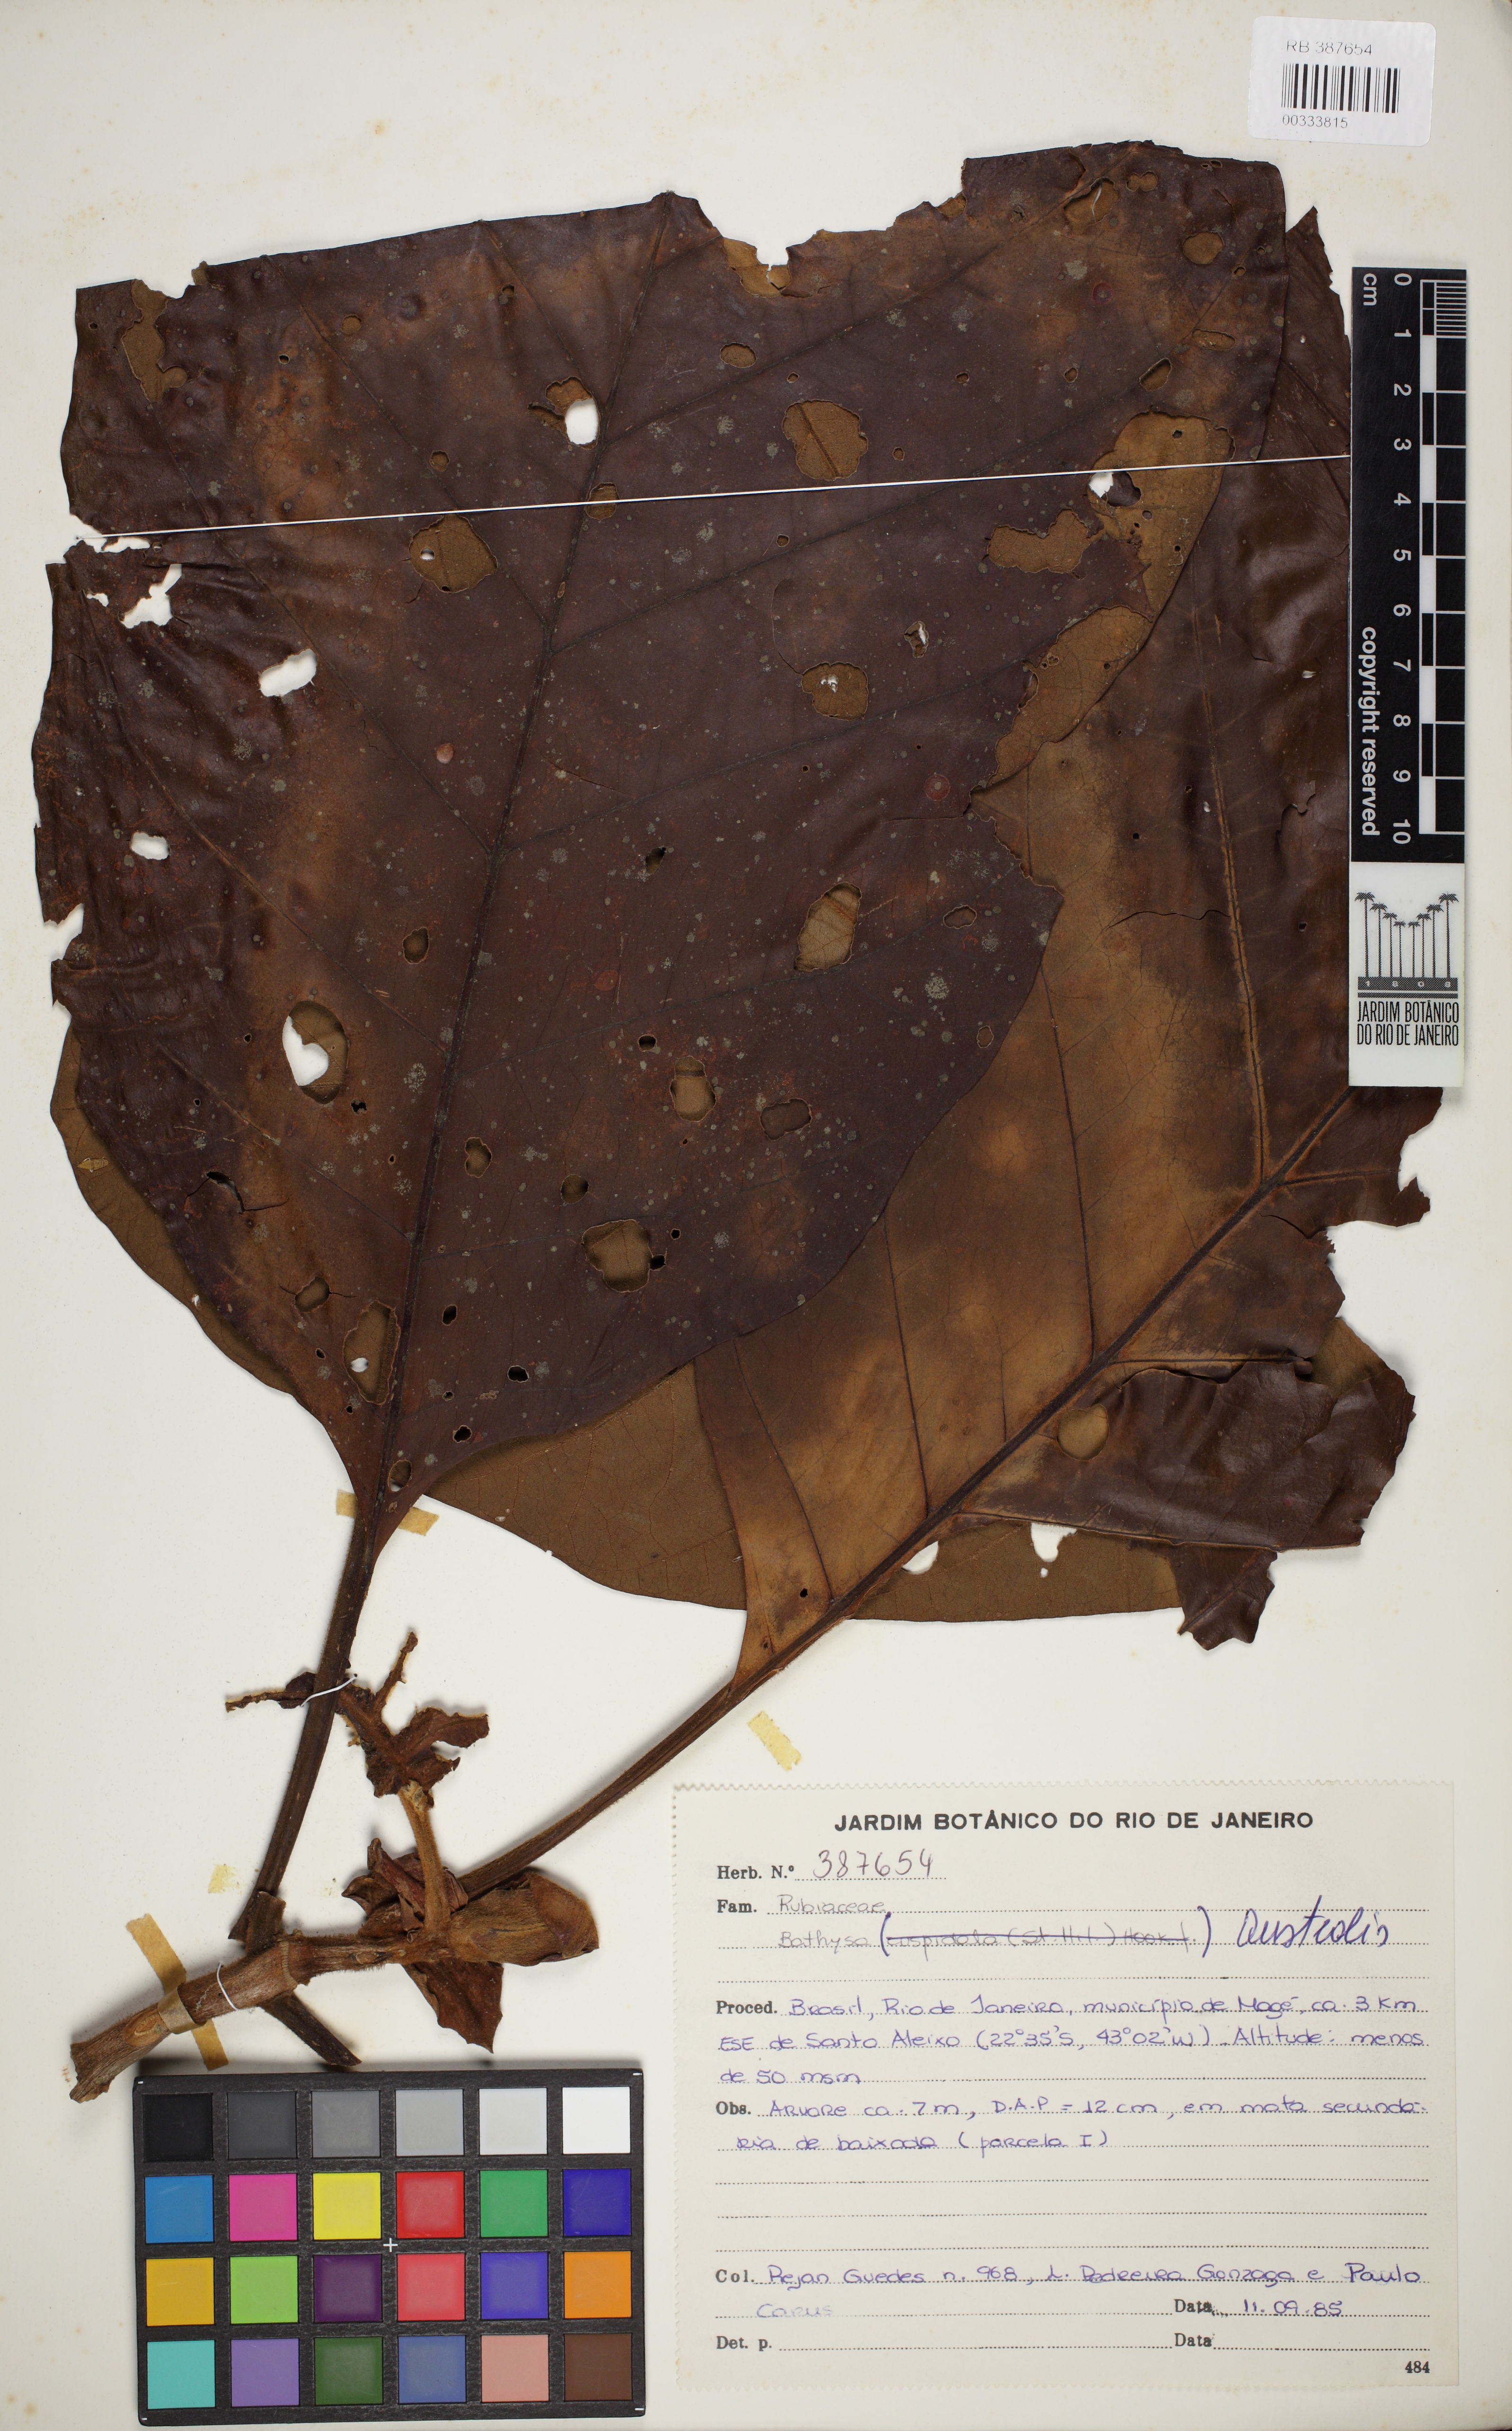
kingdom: Plantae
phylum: Tracheophyta
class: Magnoliopsida
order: Gentianales
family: Rubiaceae
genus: Bathysa
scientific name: Bathysa australis
